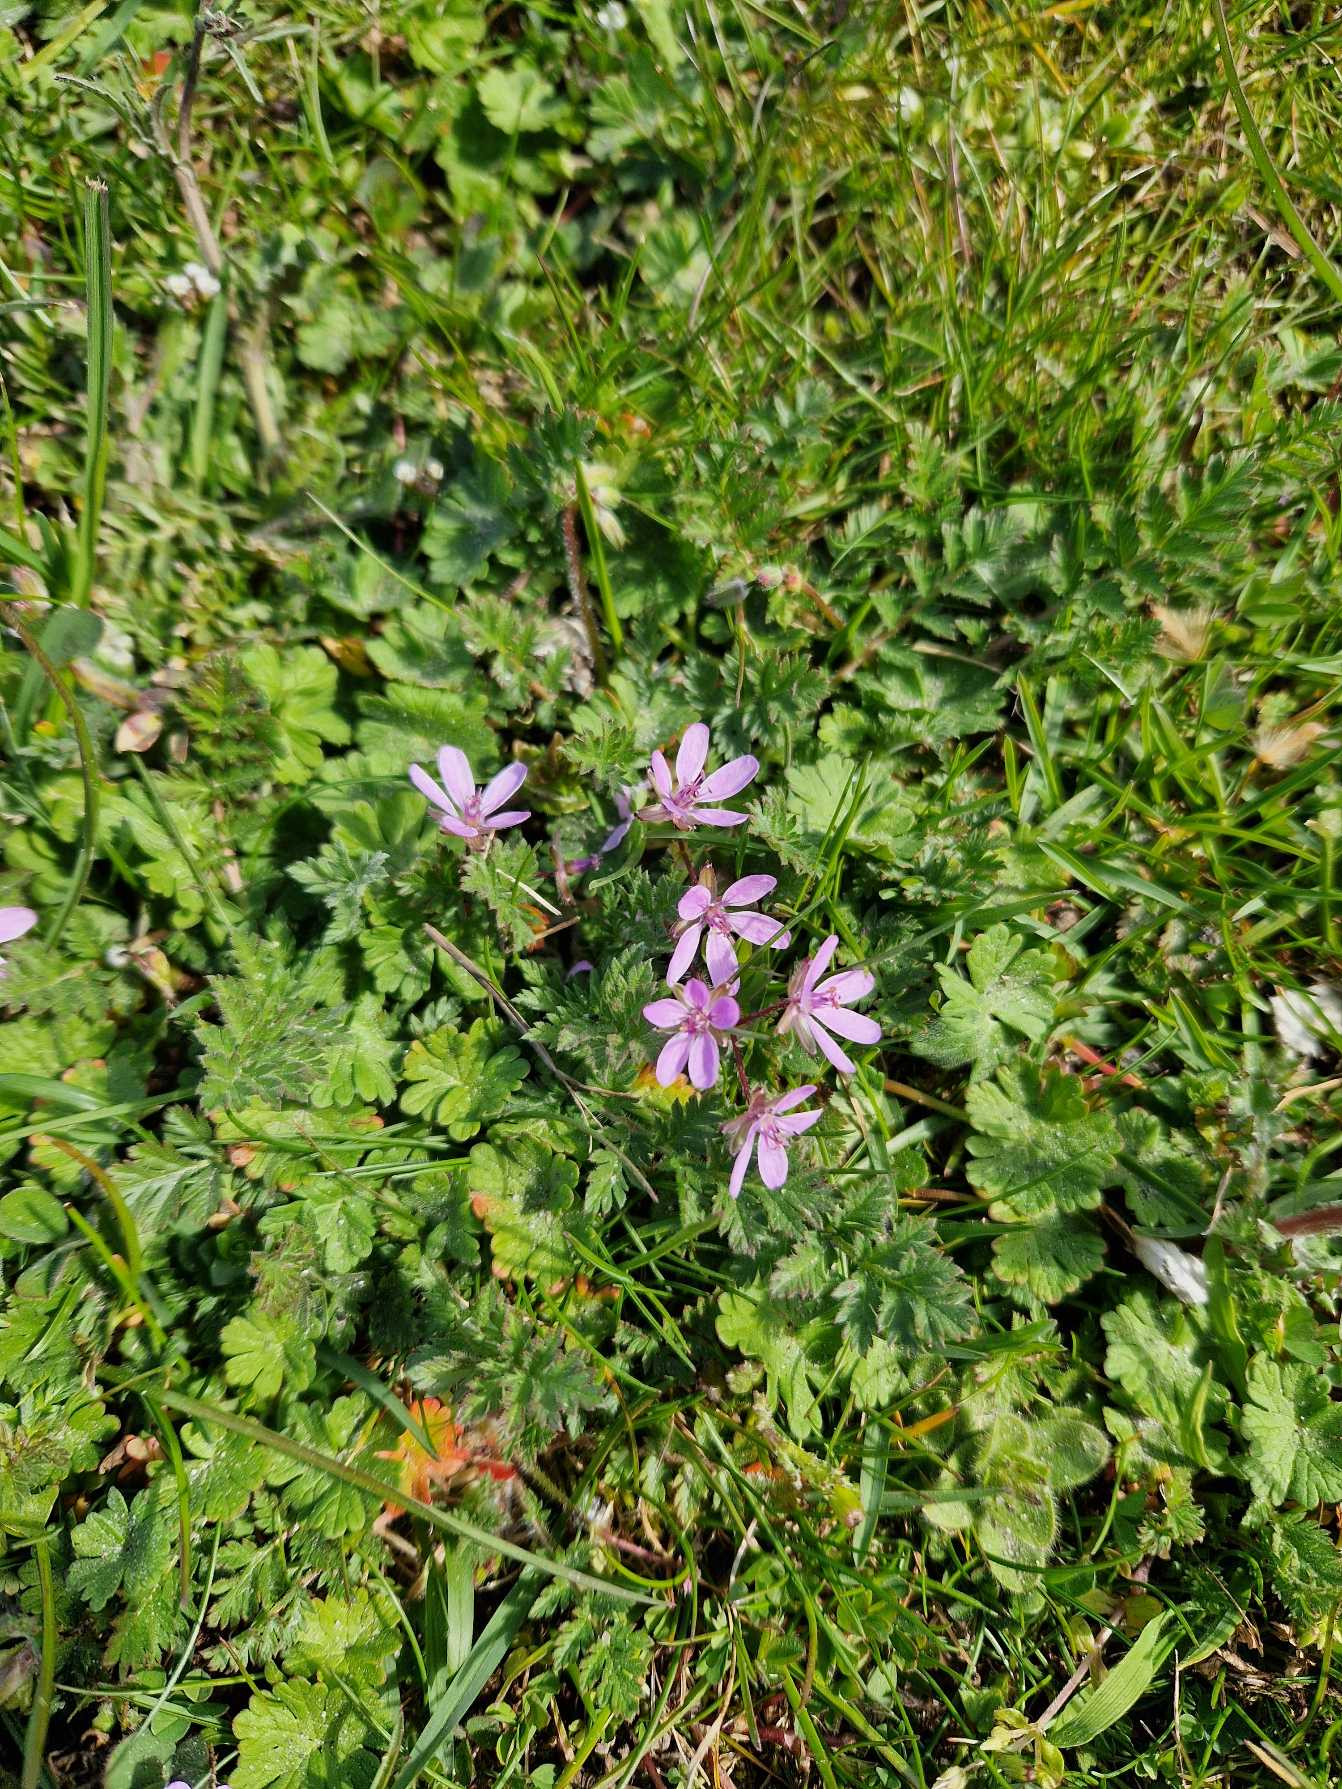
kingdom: Plantae
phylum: Tracheophyta
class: Magnoliopsida
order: Geraniales
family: Geraniaceae
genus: Erodium
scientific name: Erodium cicutarium
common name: Hejrenæb
